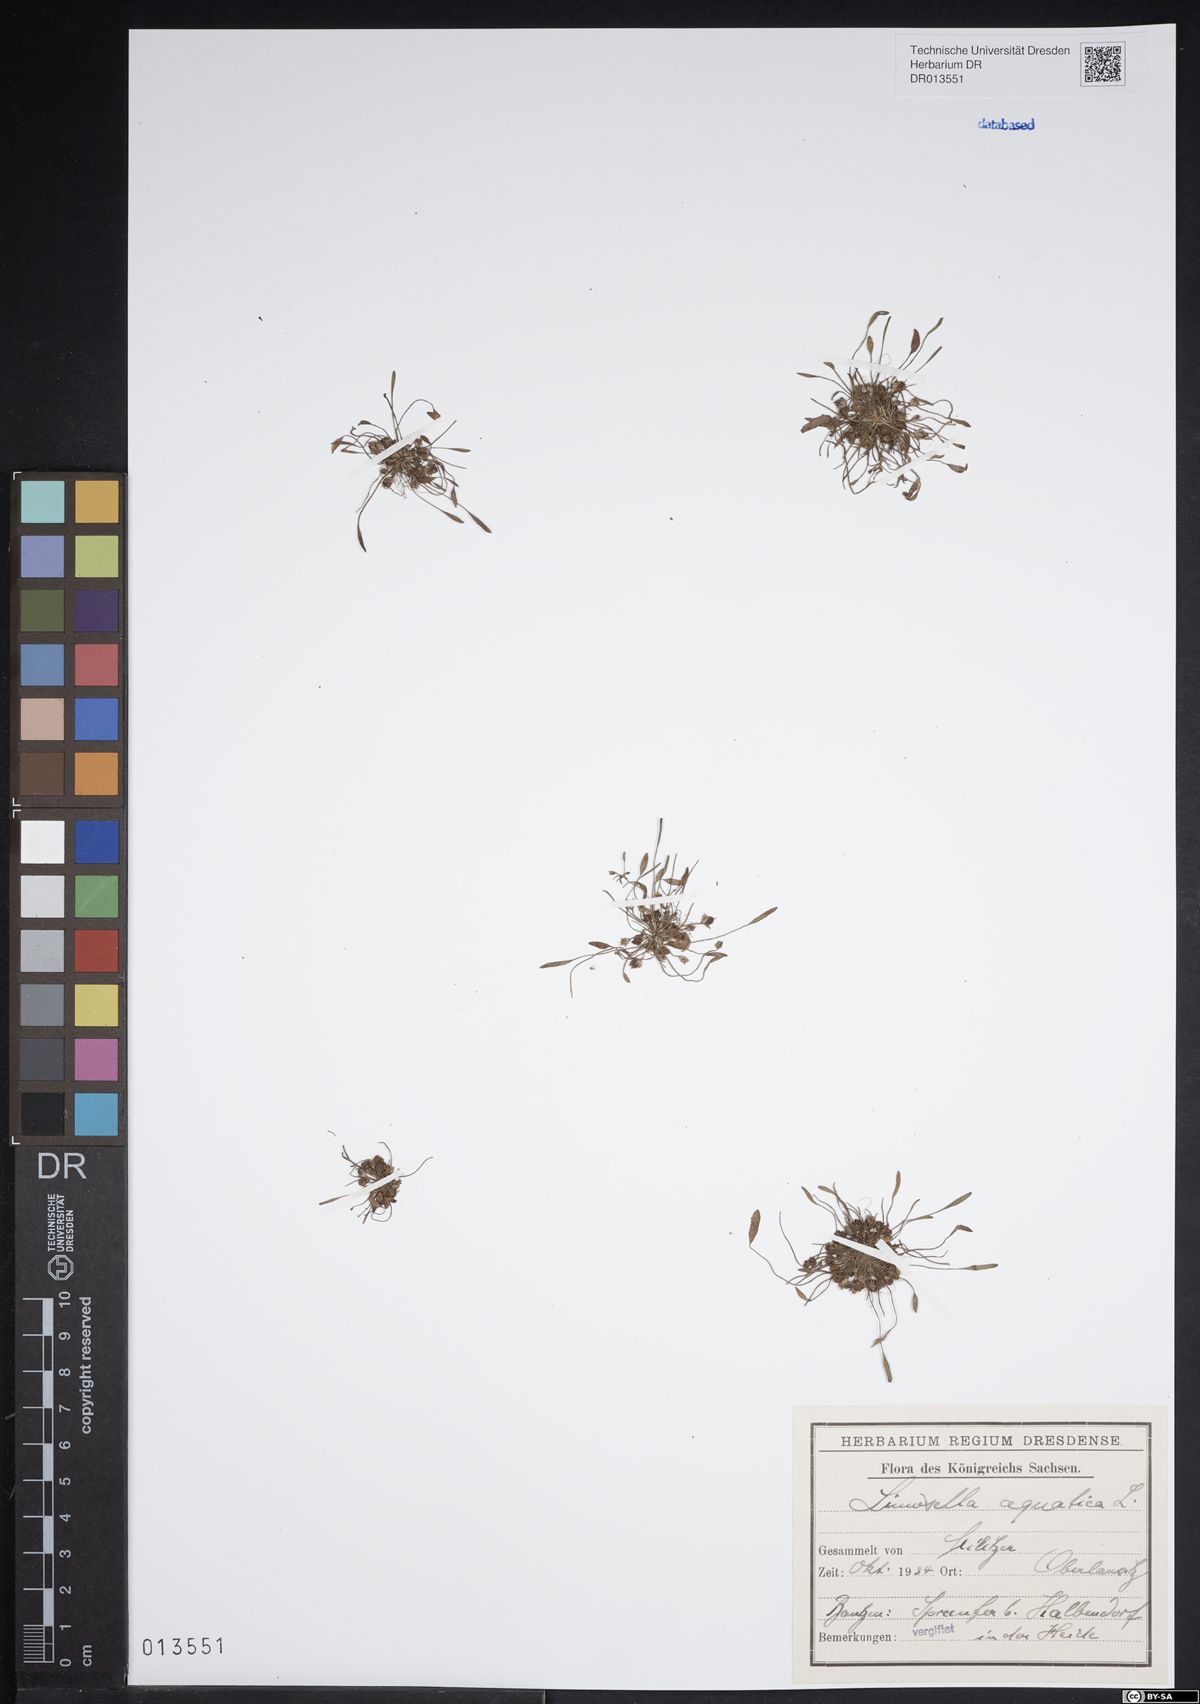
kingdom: Plantae
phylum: Tracheophyta
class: Magnoliopsida
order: Lamiales
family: Scrophulariaceae
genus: Limosella
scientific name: Limosella aquatica
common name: Mudwort
